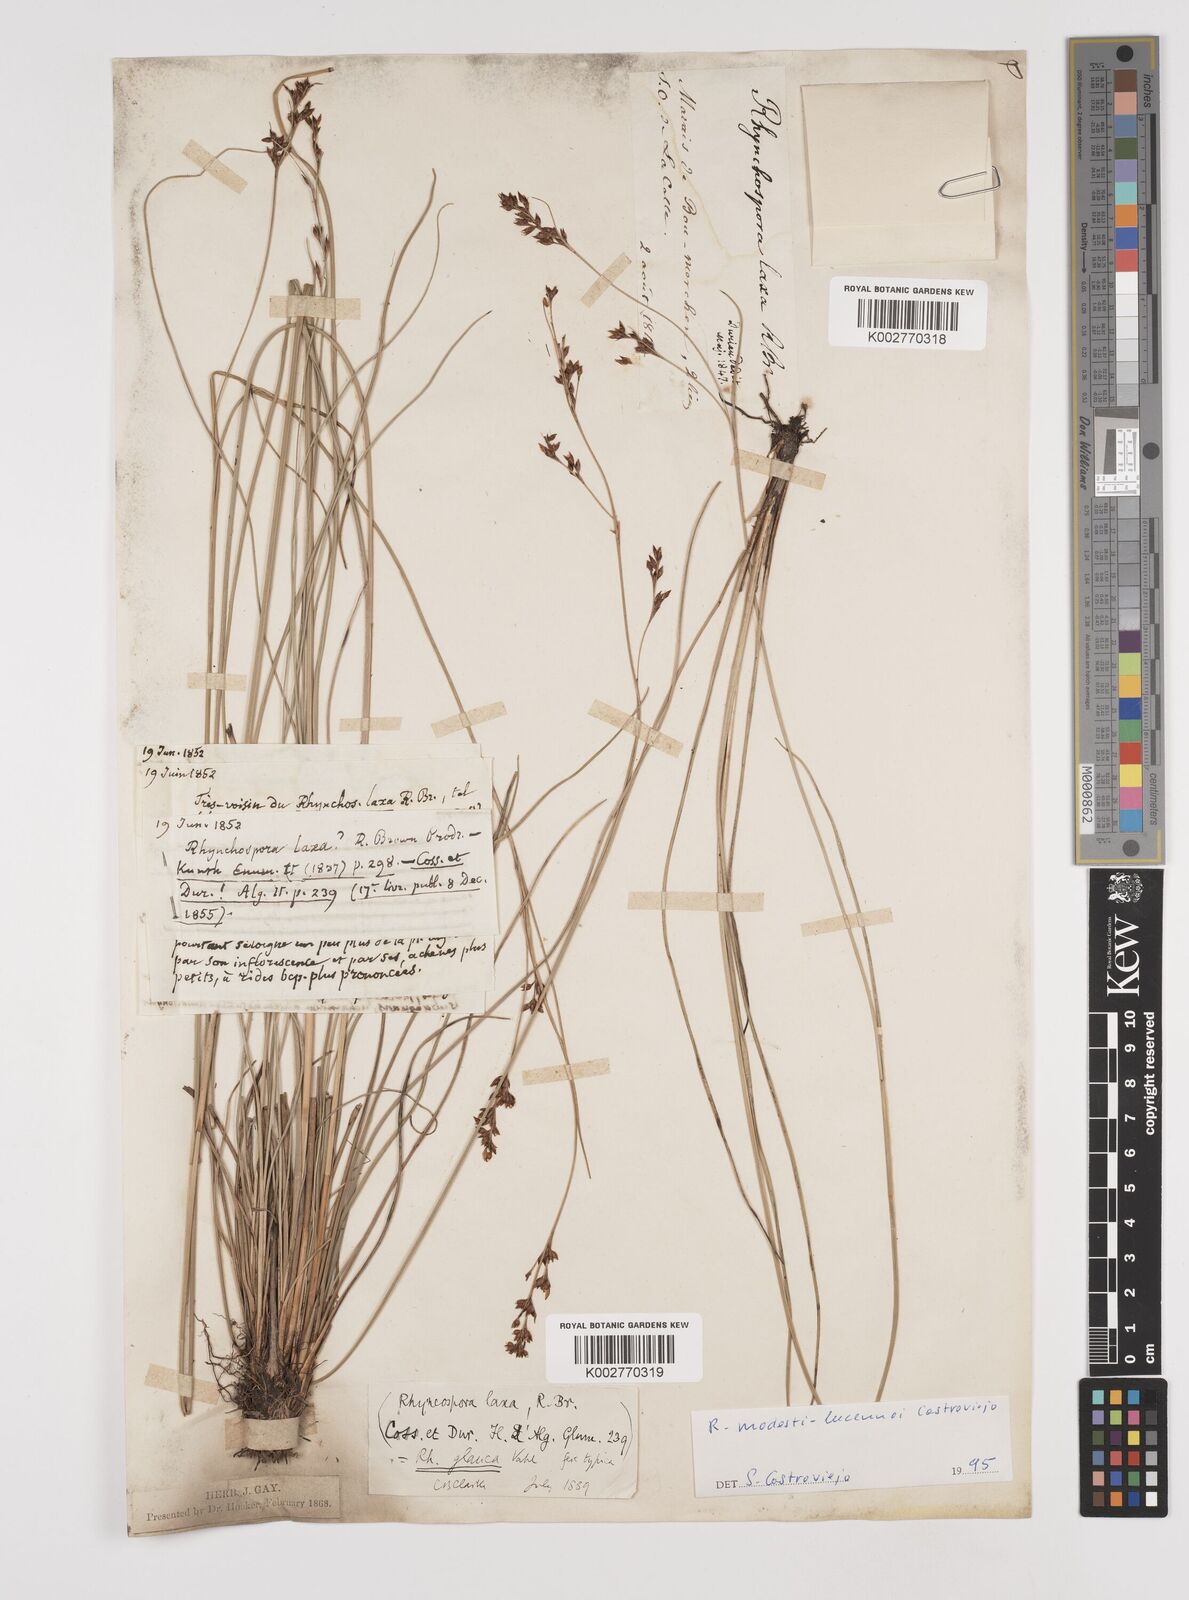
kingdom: Plantae
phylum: Tracheophyta
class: Liliopsida
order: Poales
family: Cyperaceae
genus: Rhynchospora
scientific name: Rhynchospora modesti-lucennoi
